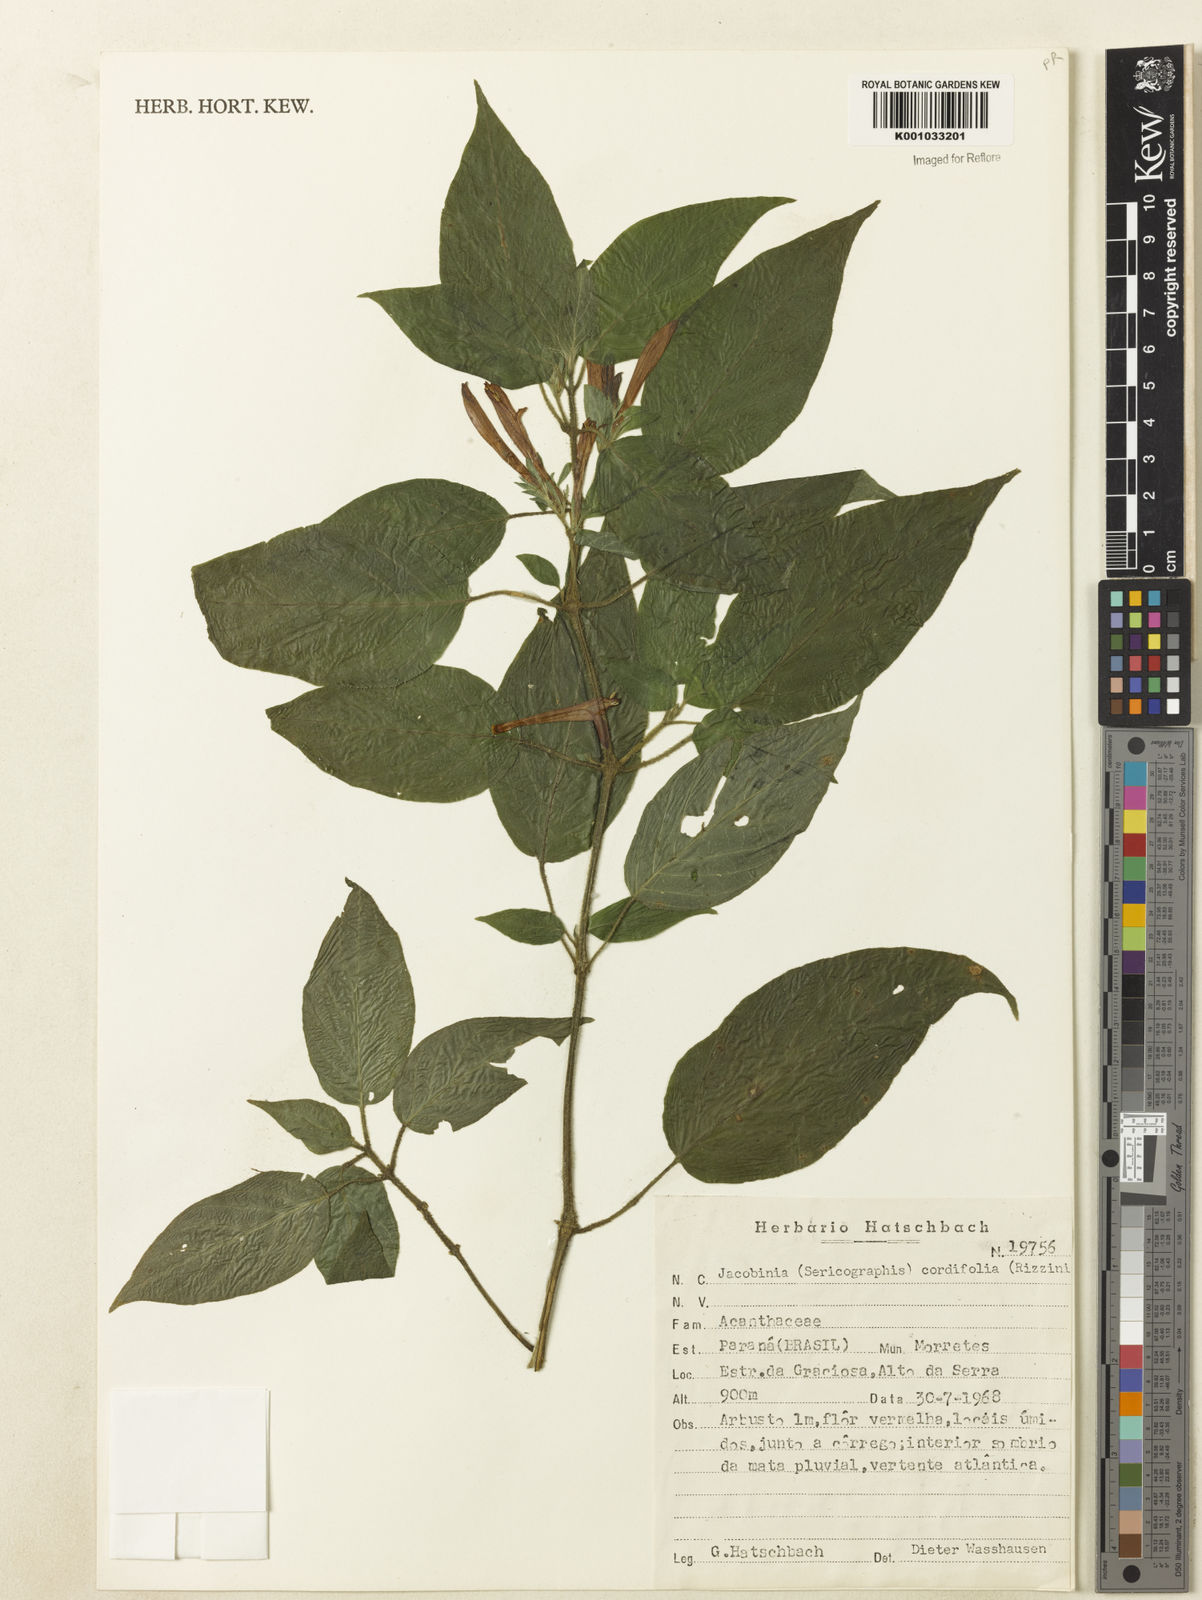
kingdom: Plantae
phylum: Tracheophyta
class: Magnoliopsida
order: Lamiales
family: Acanthaceae
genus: Andrographis
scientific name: Andrographis elongata
